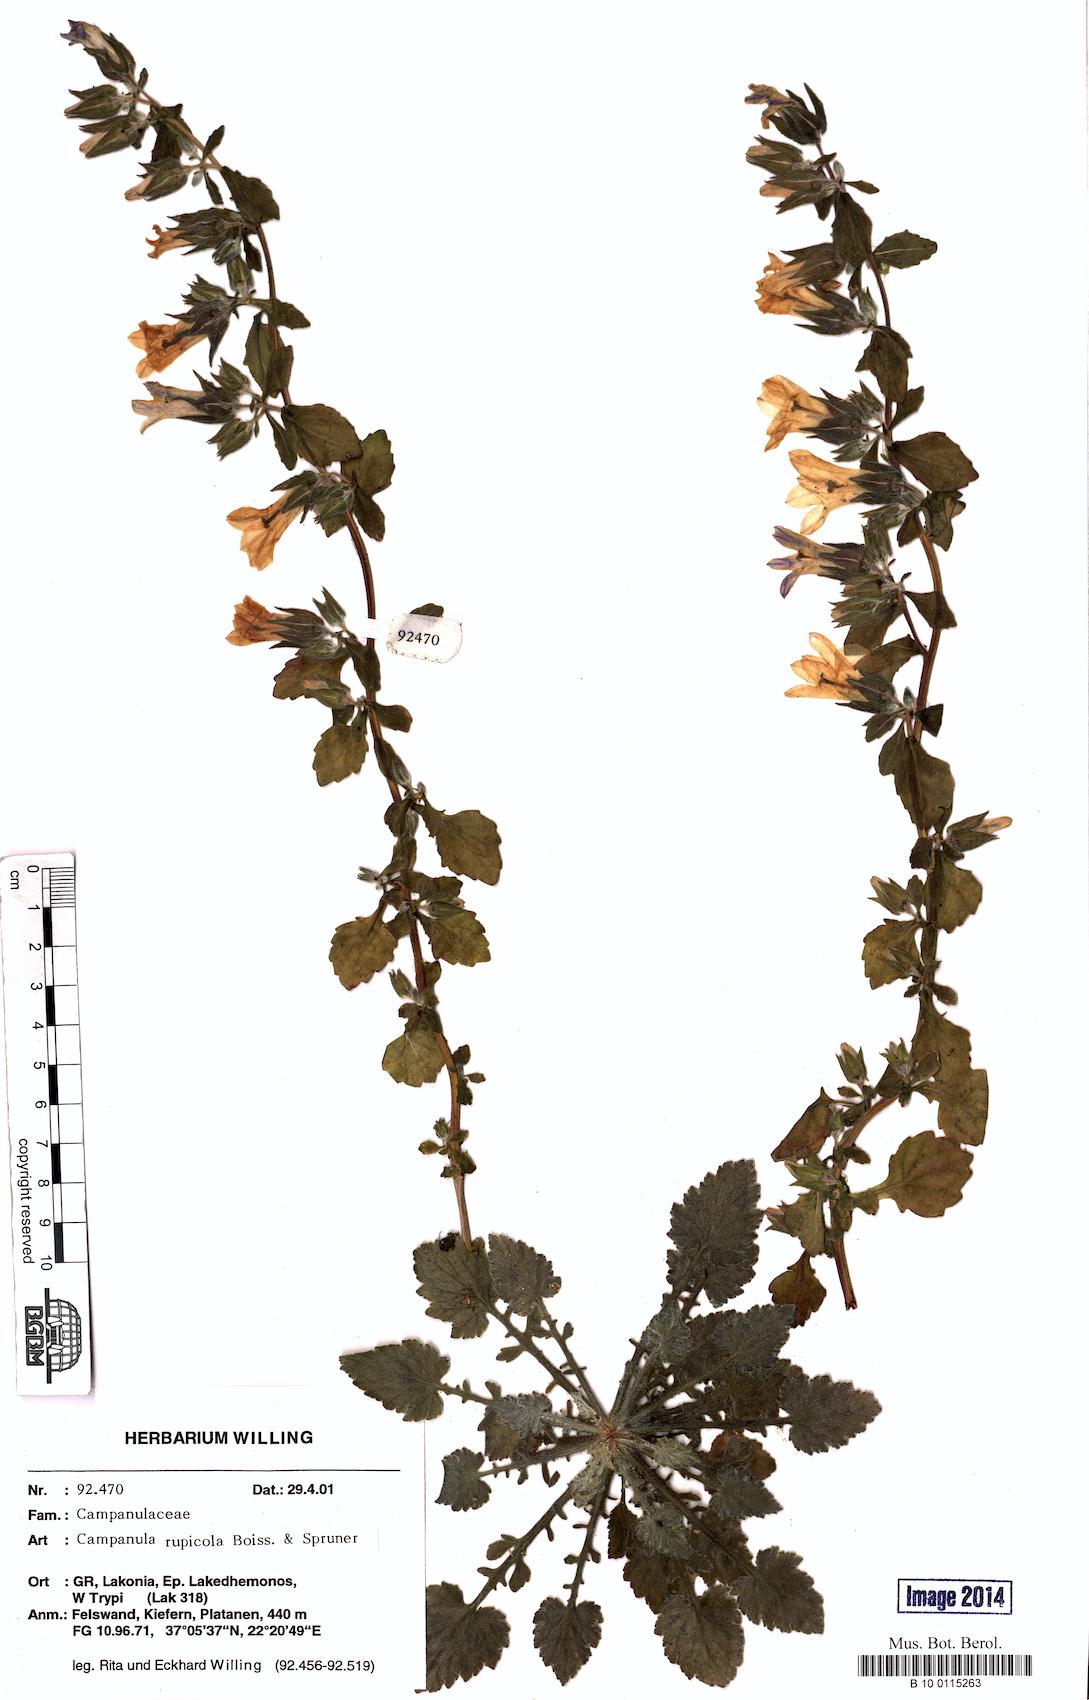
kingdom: Plantae
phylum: Tracheophyta
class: Magnoliopsida
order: Asterales
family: Campanulaceae
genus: Campanula
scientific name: Campanula rupicola
